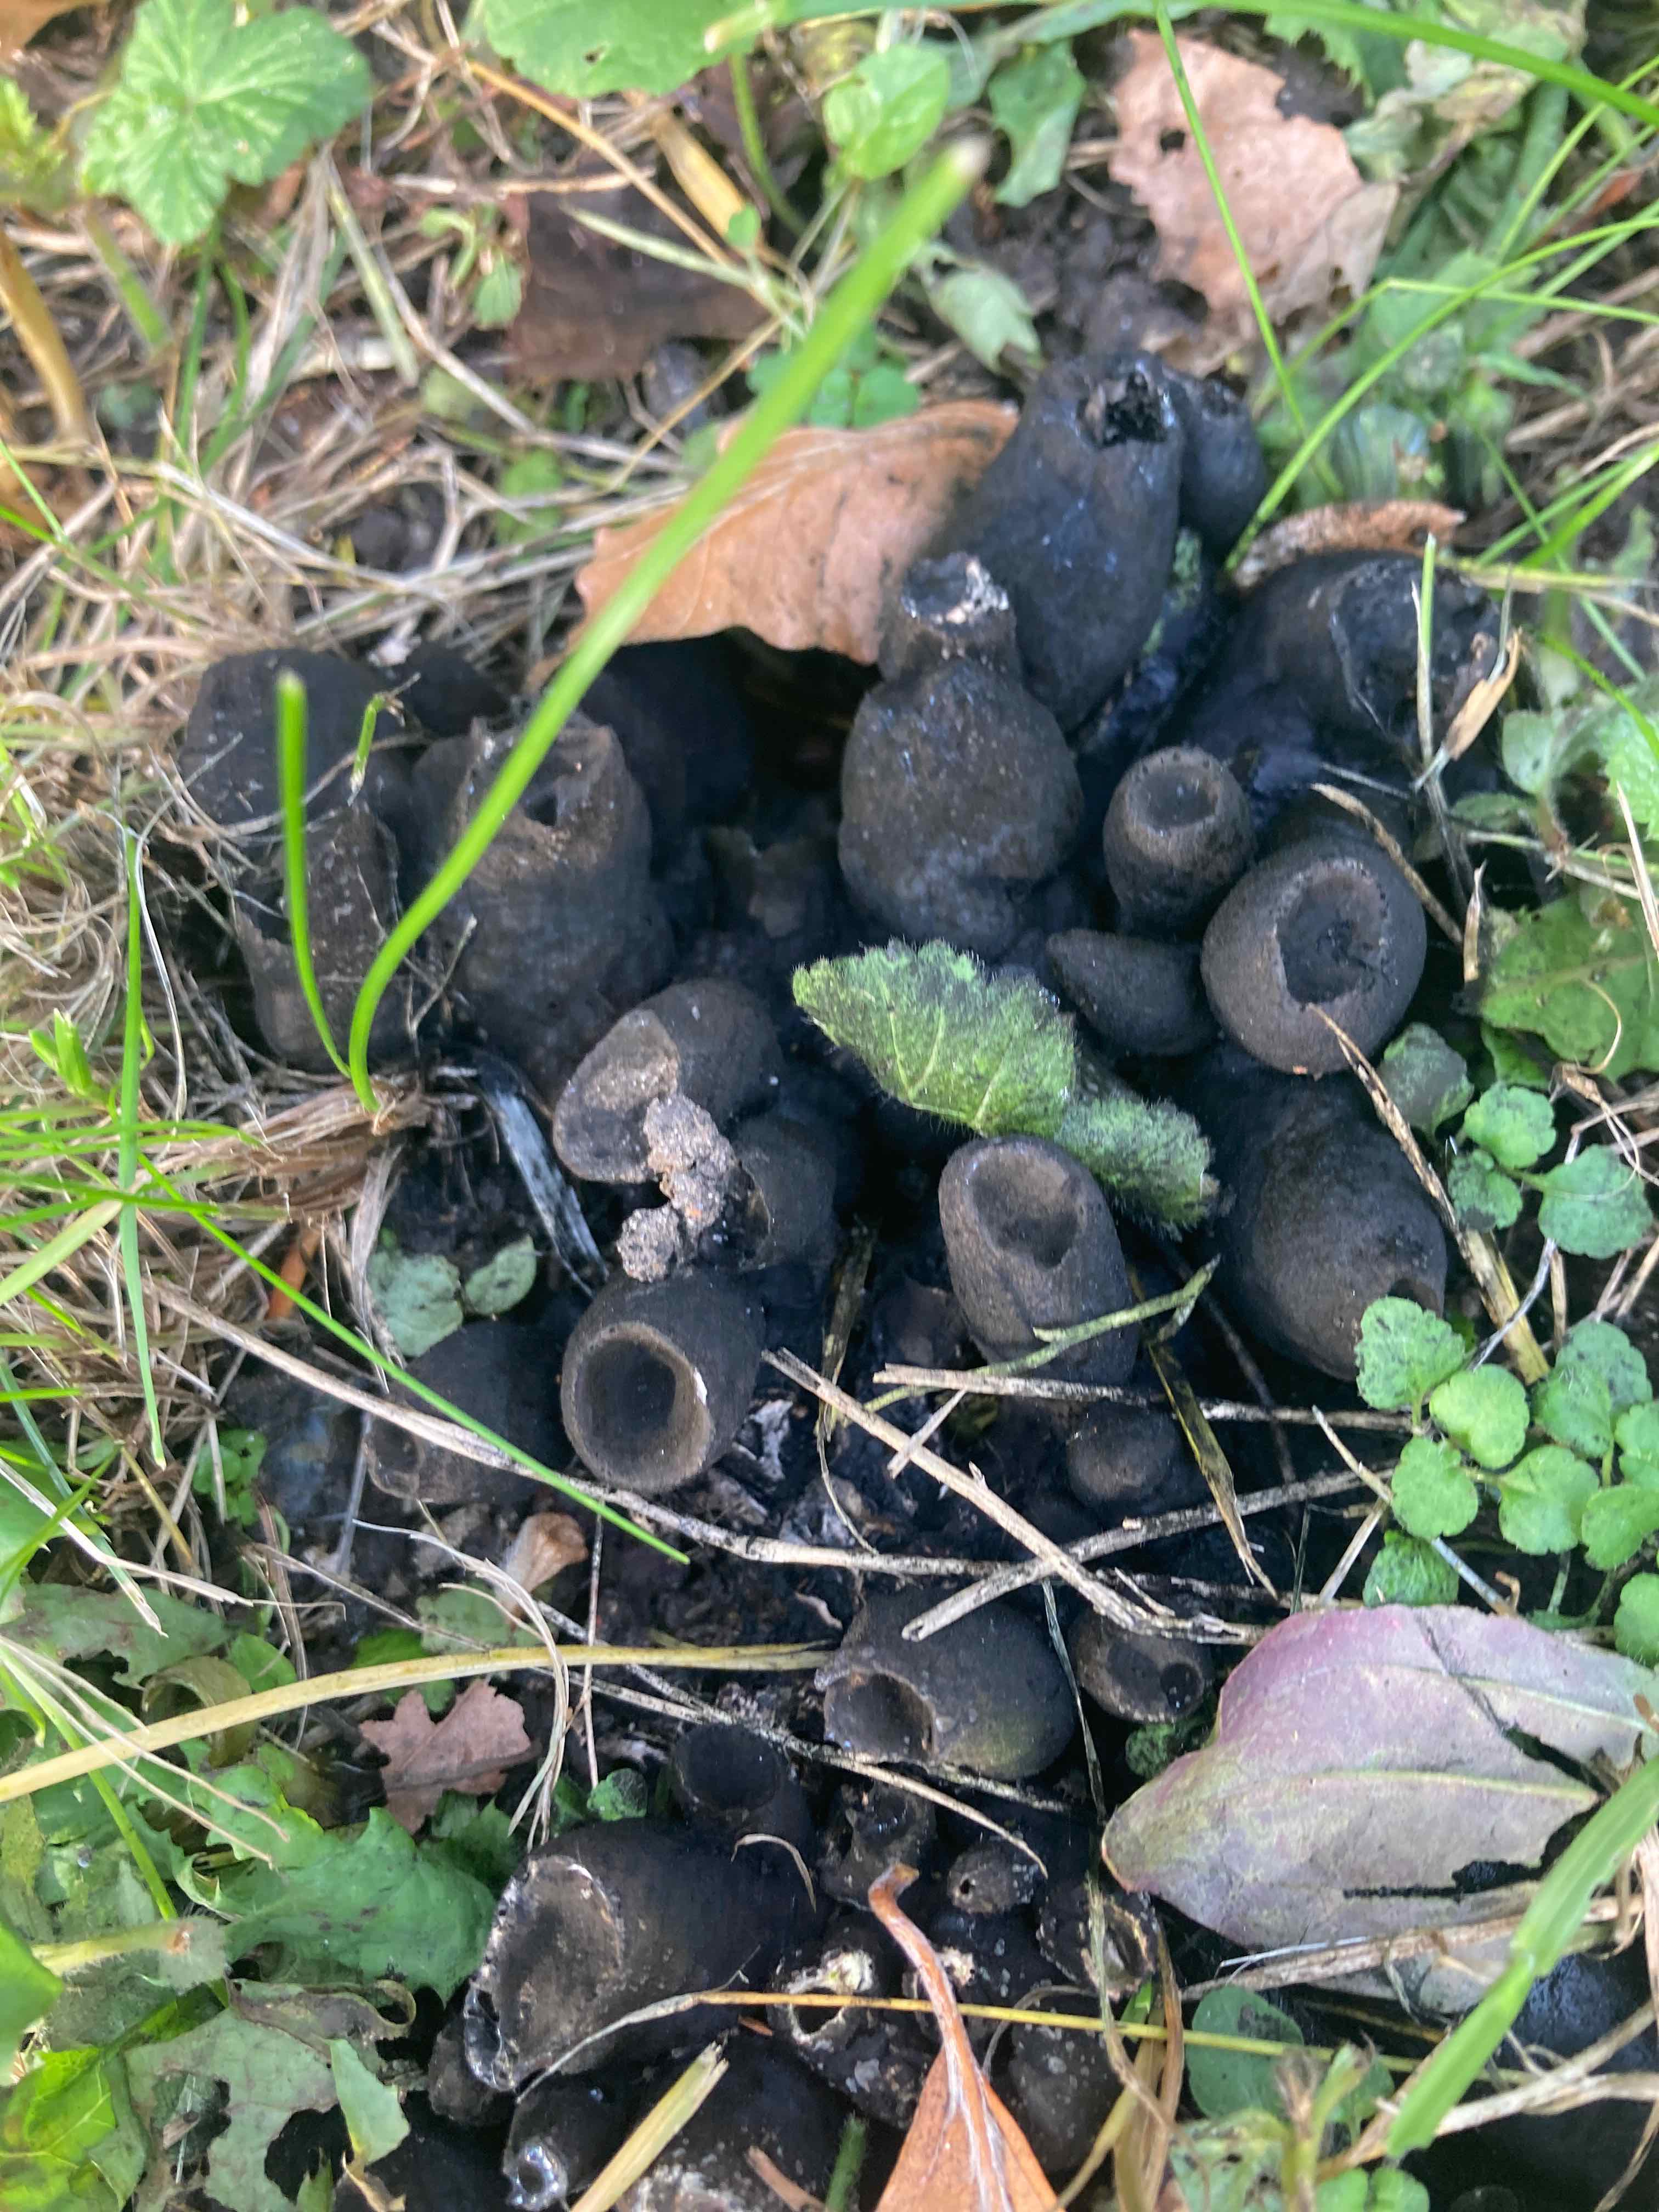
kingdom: Fungi
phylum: Ascomycota
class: Sordariomycetes
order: Xylariales
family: Xylariaceae
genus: Xylaria
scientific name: Xylaria polymorpha
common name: kølle-stødsvamp
